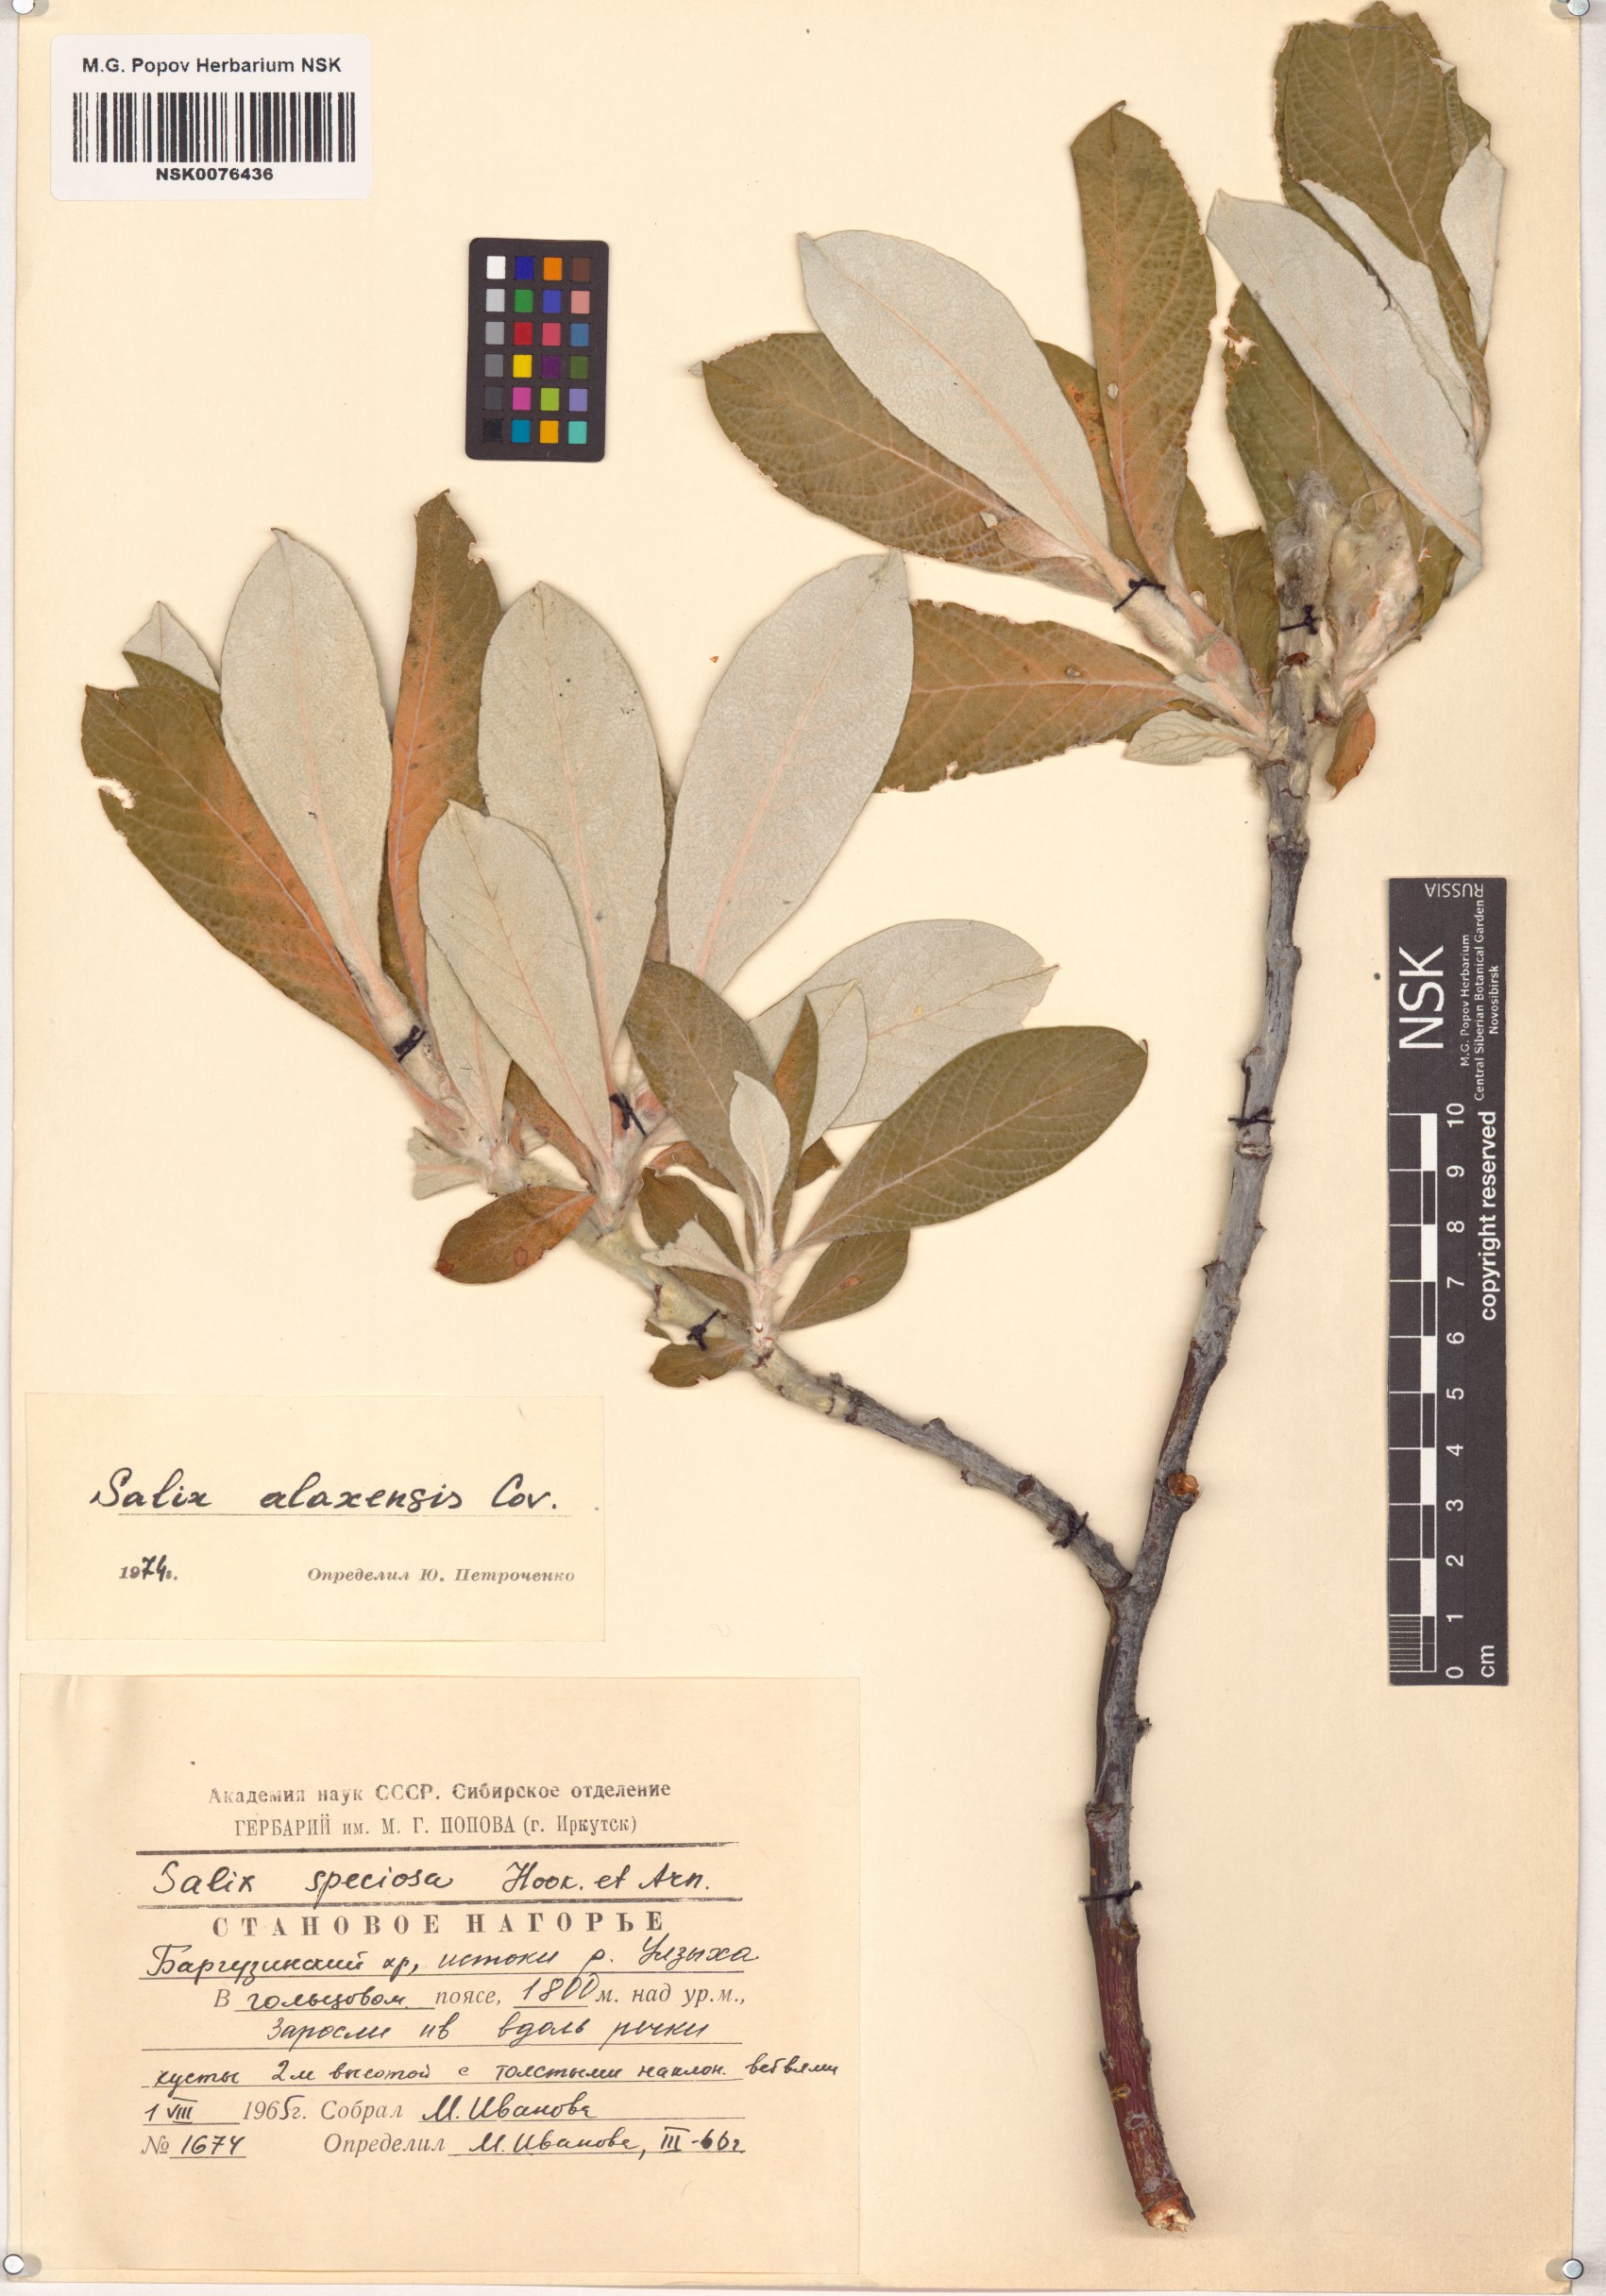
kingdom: Plantae
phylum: Tracheophyta
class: Magnoliopsida
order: Malpighiales
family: Salicaceae
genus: Salix
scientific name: Salix alaxensis
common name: Feltleaf willow
